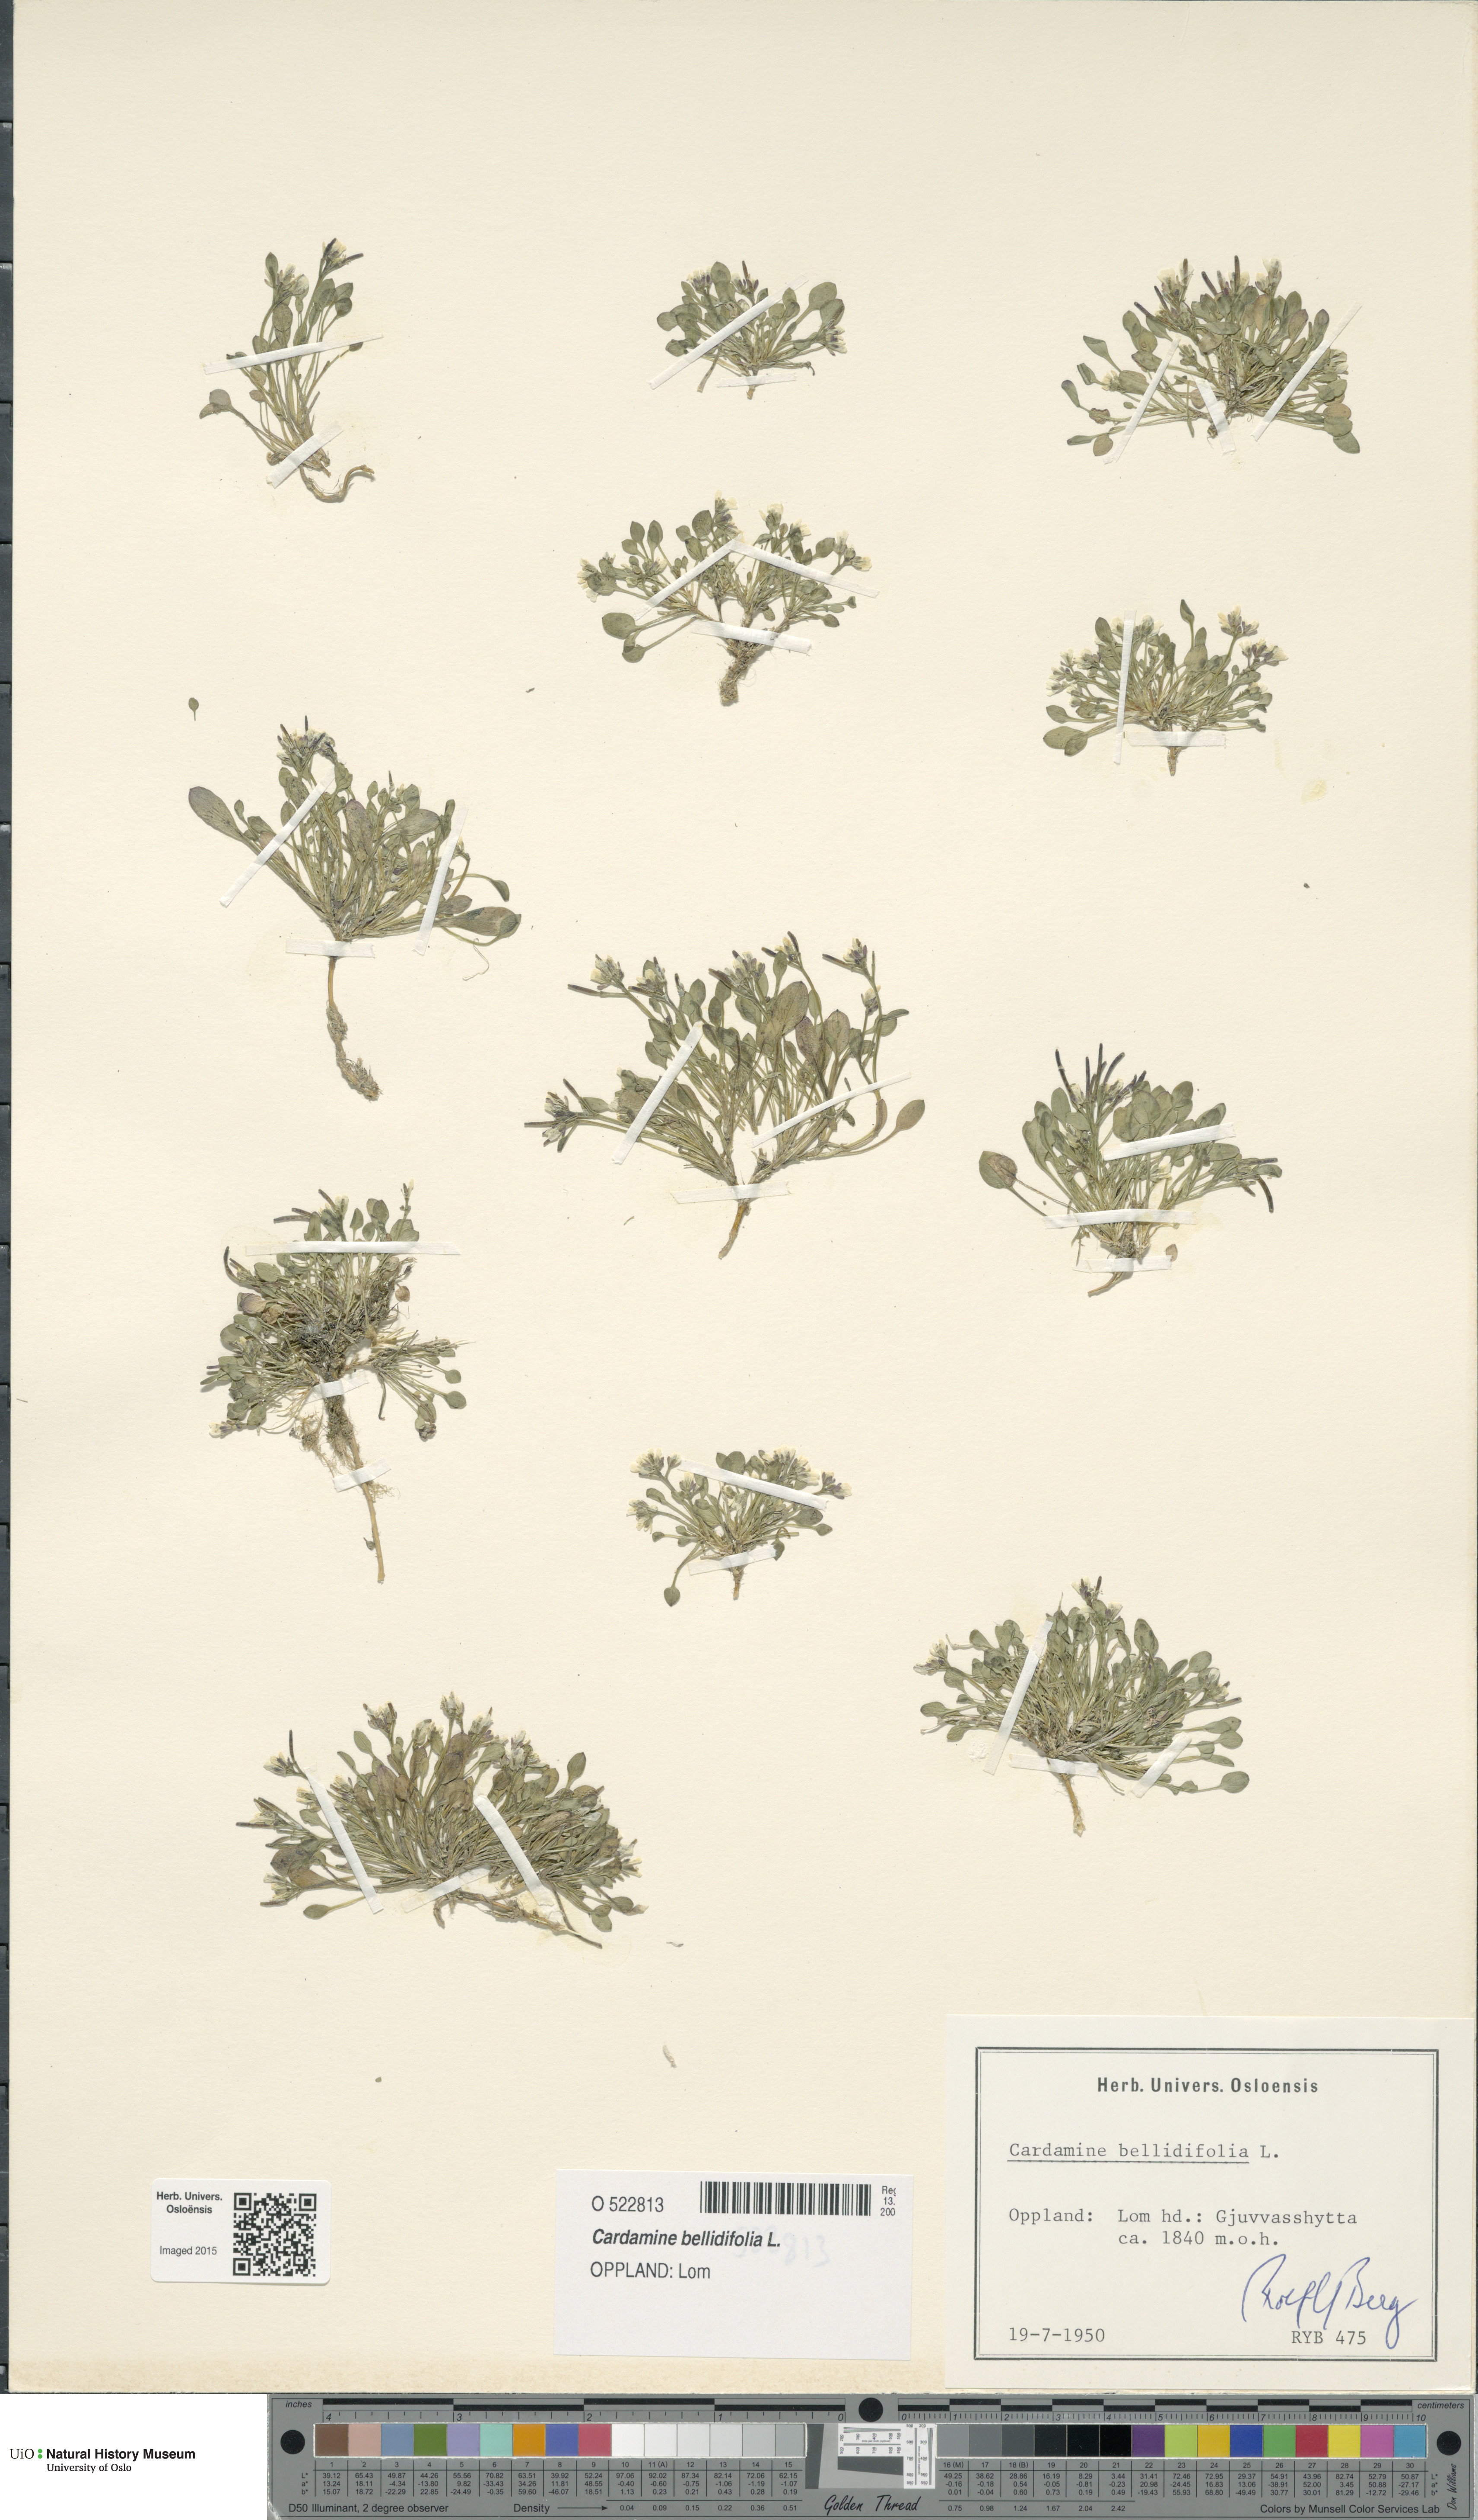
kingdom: Plantae
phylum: Tracheophyta
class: Magnoliopsida
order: Brassicales
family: Brassicaceae
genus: Cardamine
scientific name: Cardamine bellidifolia
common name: Alpine bittercress
